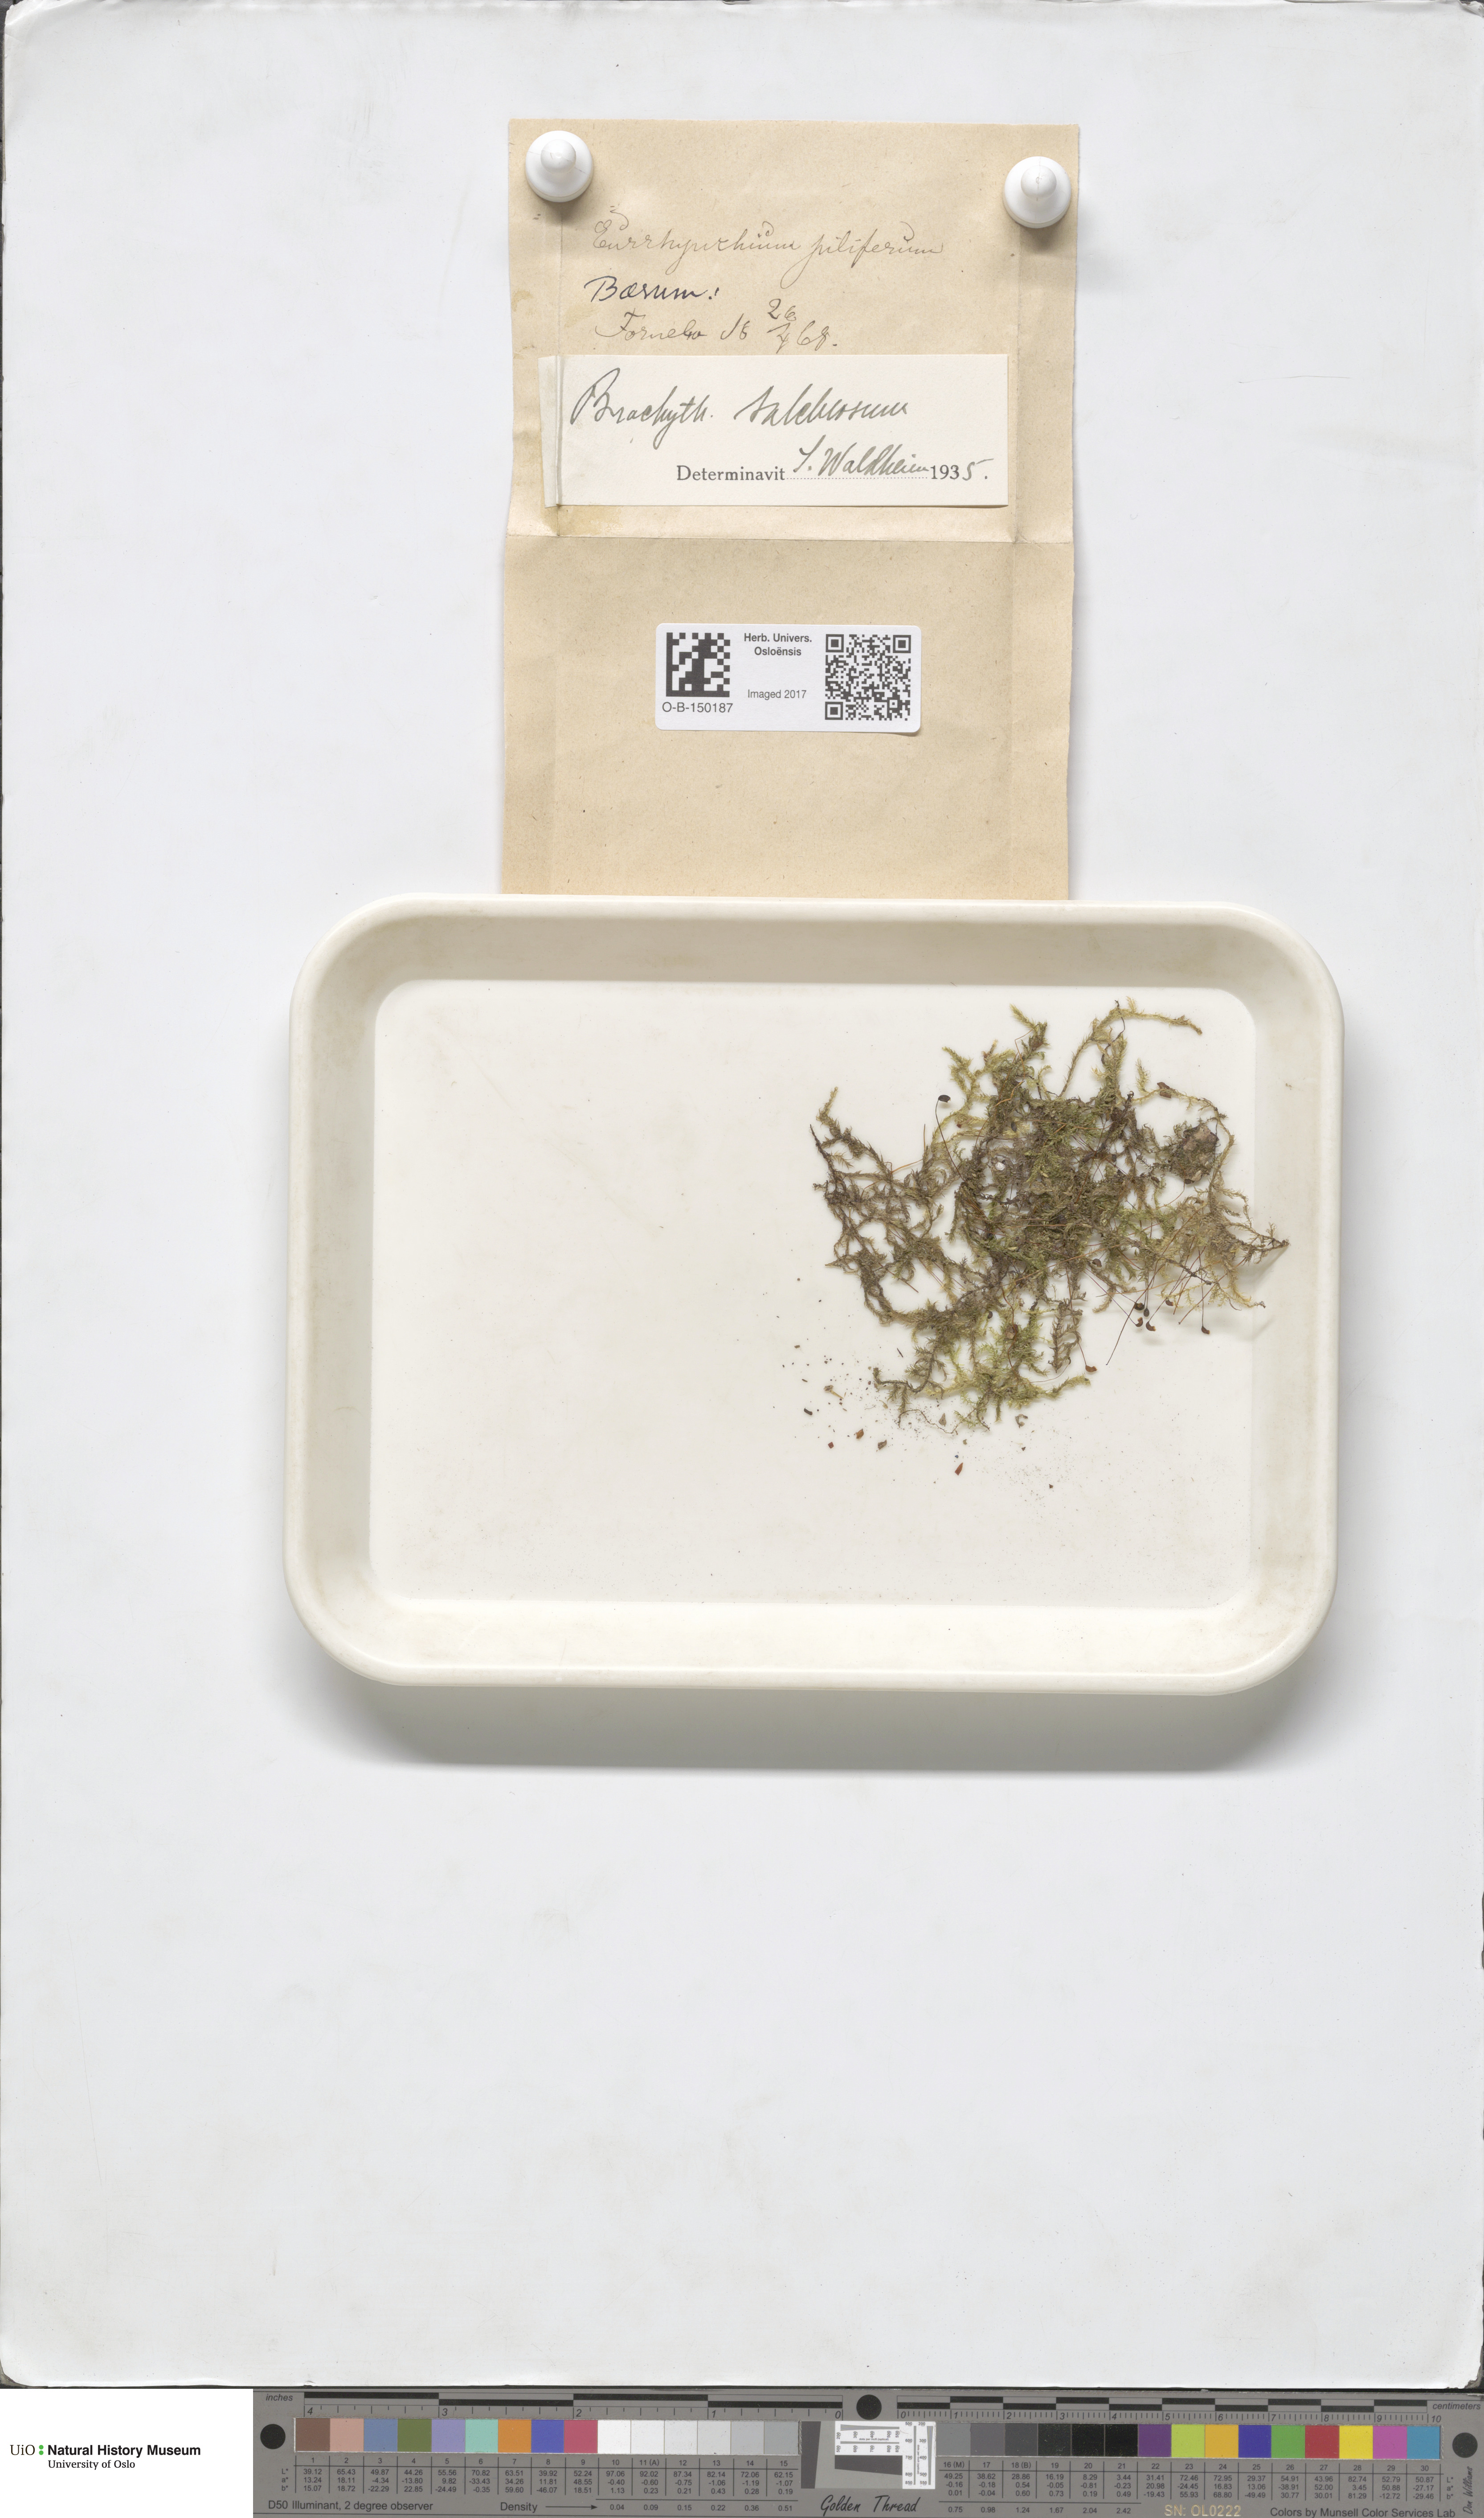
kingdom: Plantae
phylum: Bryophyta
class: Bryopsida
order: Hypnales
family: Brachytheciaceae
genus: Brachythecium
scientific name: Brachythecium salebrosum
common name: Smooth-stalk feather-moss
